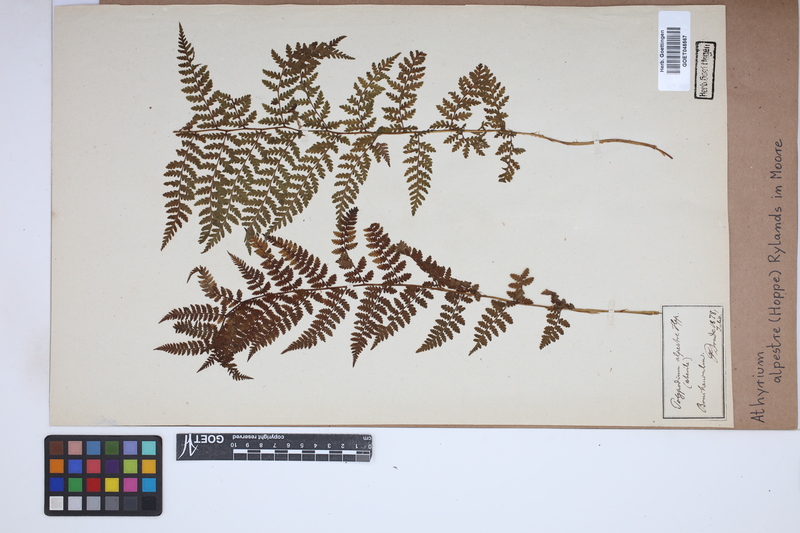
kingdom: Plantae
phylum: Tracheophyta
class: Polypodiopsida
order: Polypodiales
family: Athyriaceae
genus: Pseudathyrium
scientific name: Pseudathyrium alpestre
